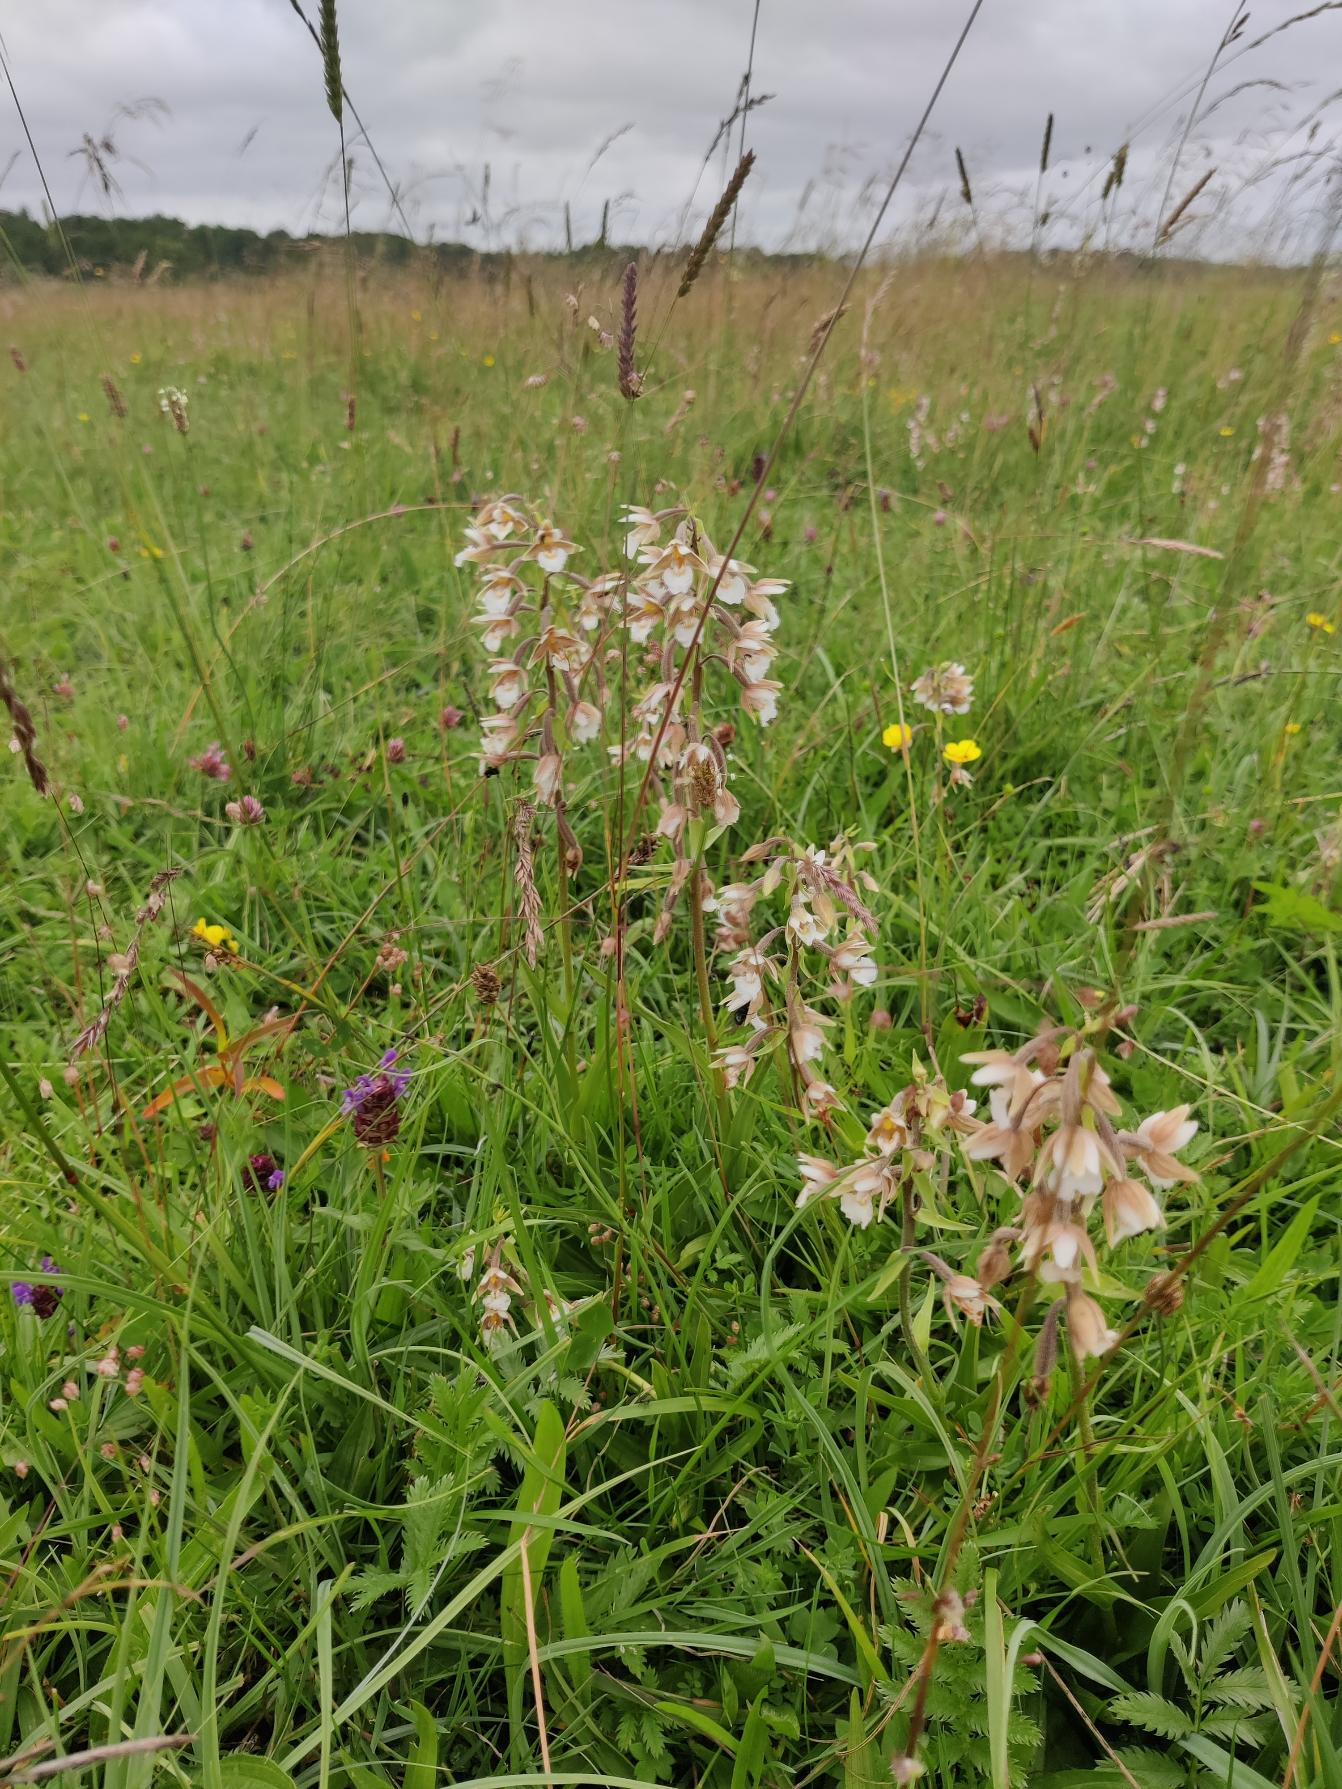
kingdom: Plantae
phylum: Tracheophyta
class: Liliopsida
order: Asparagales
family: Orchidaceae
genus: Epipactis
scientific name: Epipactis palustris
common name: Sump-hullæbe
